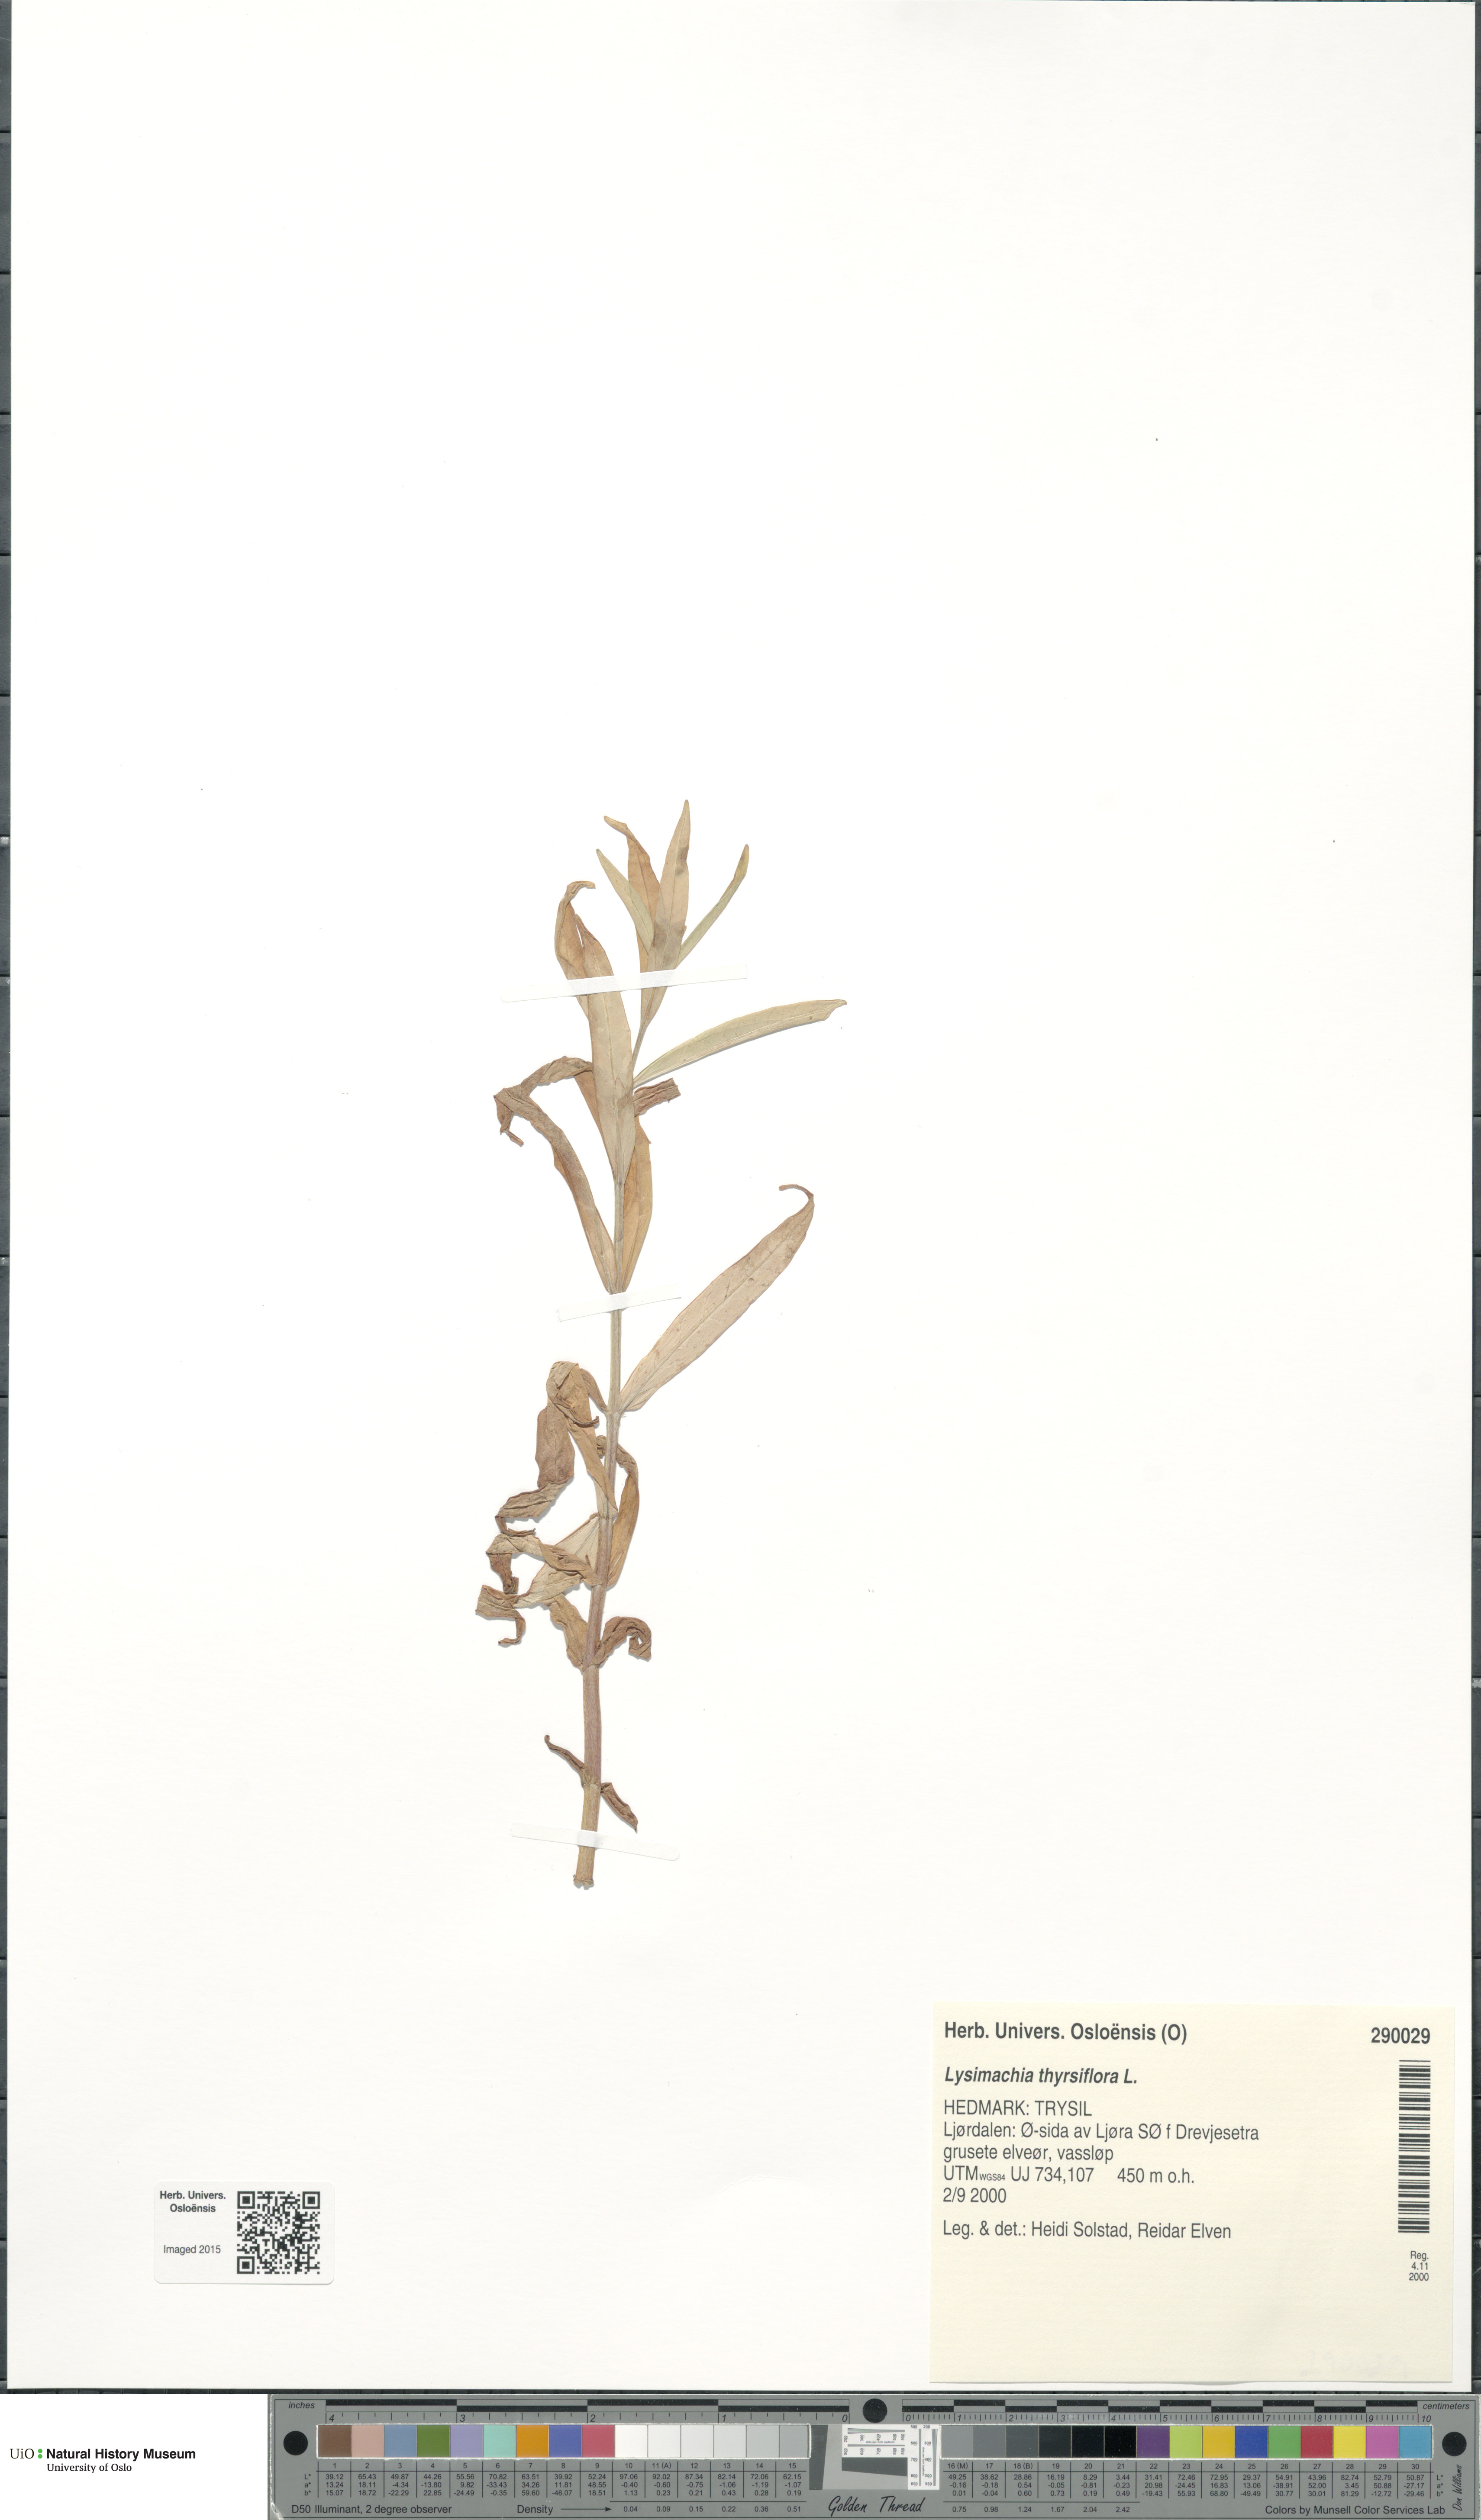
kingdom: Plantae
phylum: Tracheophyta
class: Magnoliopsida
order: Ericales
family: Primulaceae
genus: Lysimachia
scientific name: Lysimachia thyrsiflora
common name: Tufted loosestrife
